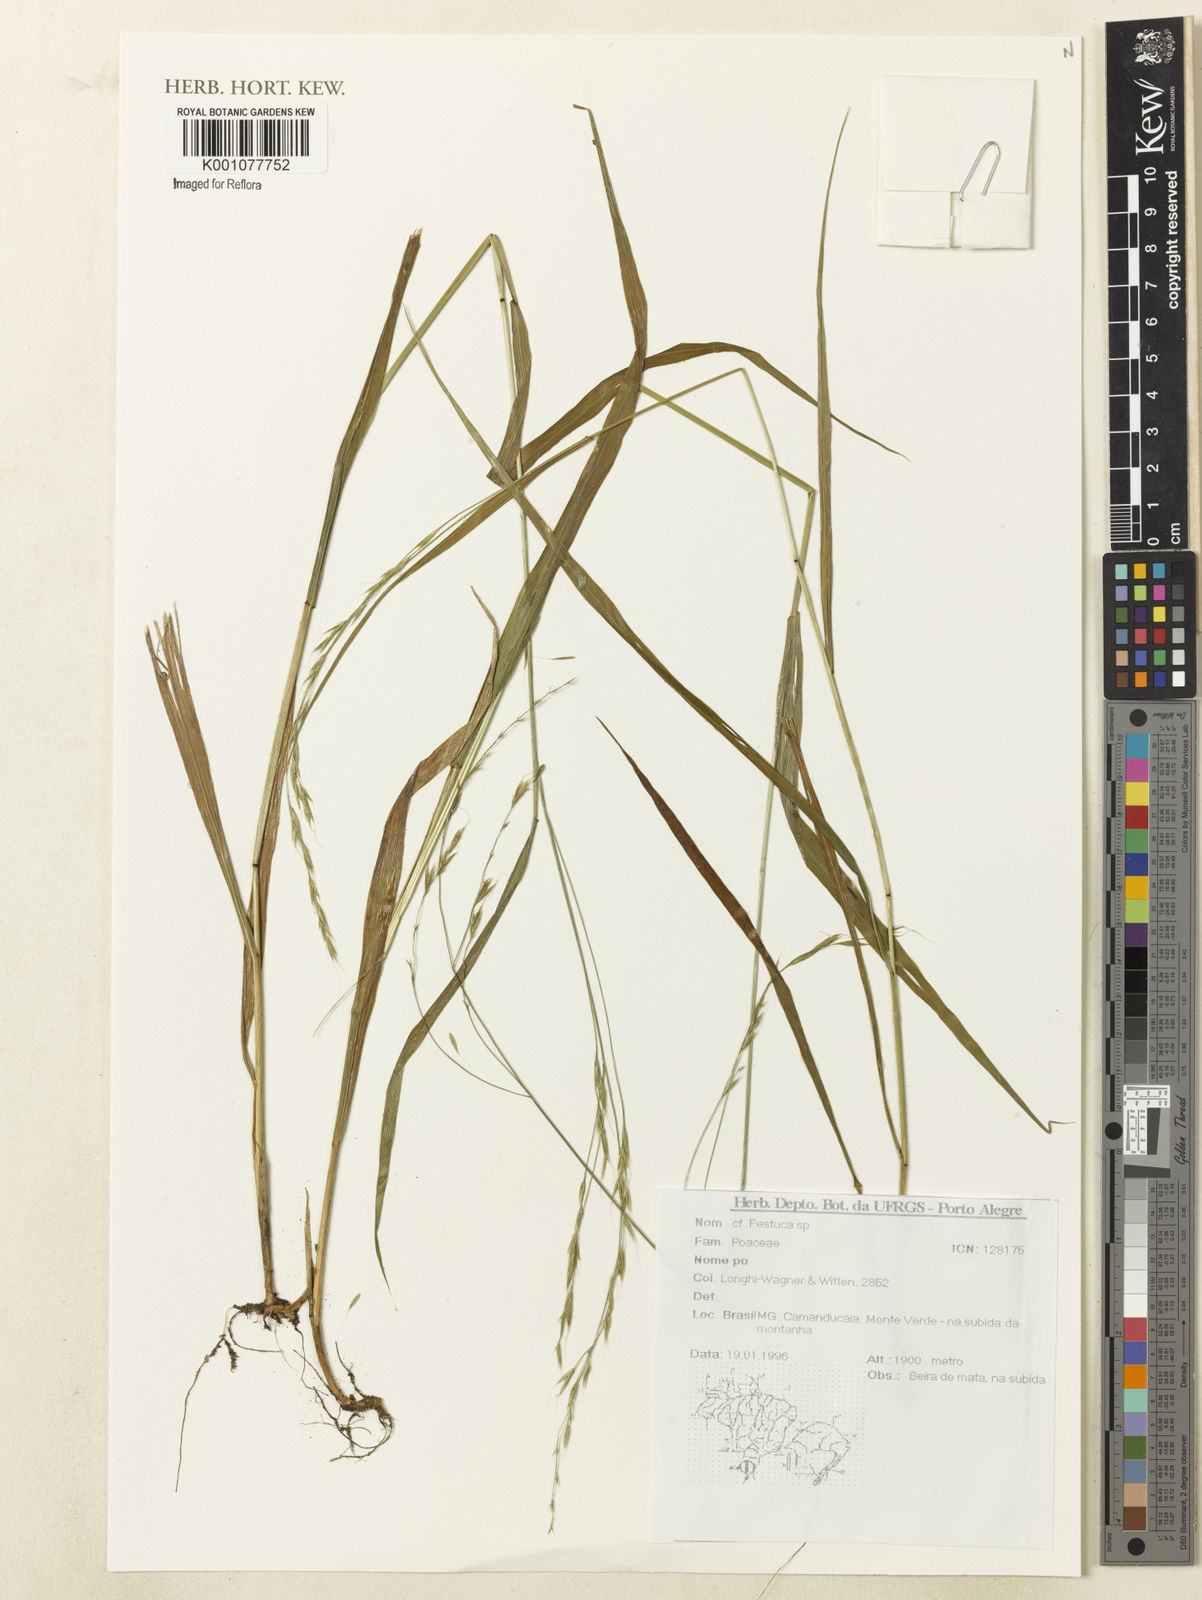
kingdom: Plantae
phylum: Tracheophyta
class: Liliopsida
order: Poales
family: Poaceae
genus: Festuca
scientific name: Festuca
